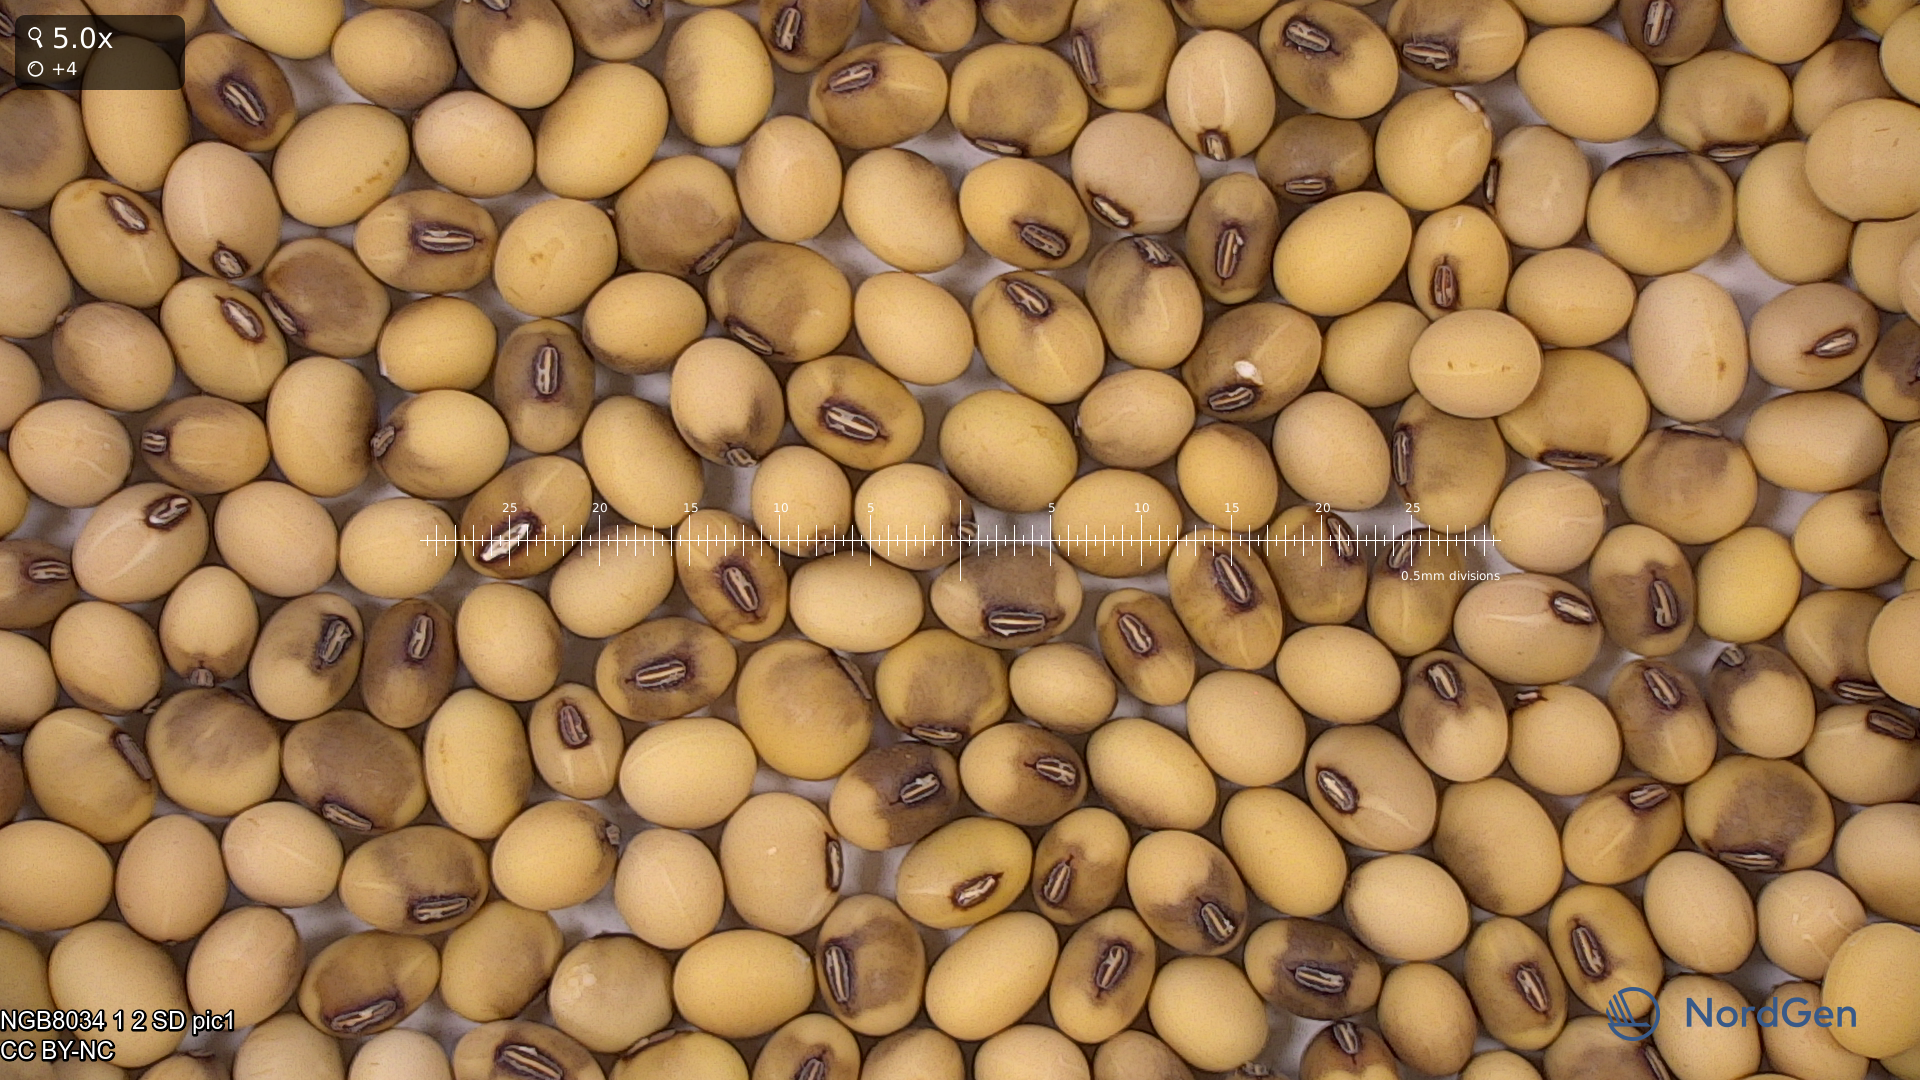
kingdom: Plantae
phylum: Tracheophyta
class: Magnoliopsida
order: Fabales
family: Fabaceae
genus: Glycine
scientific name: Glycine max
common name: Soya-bean
